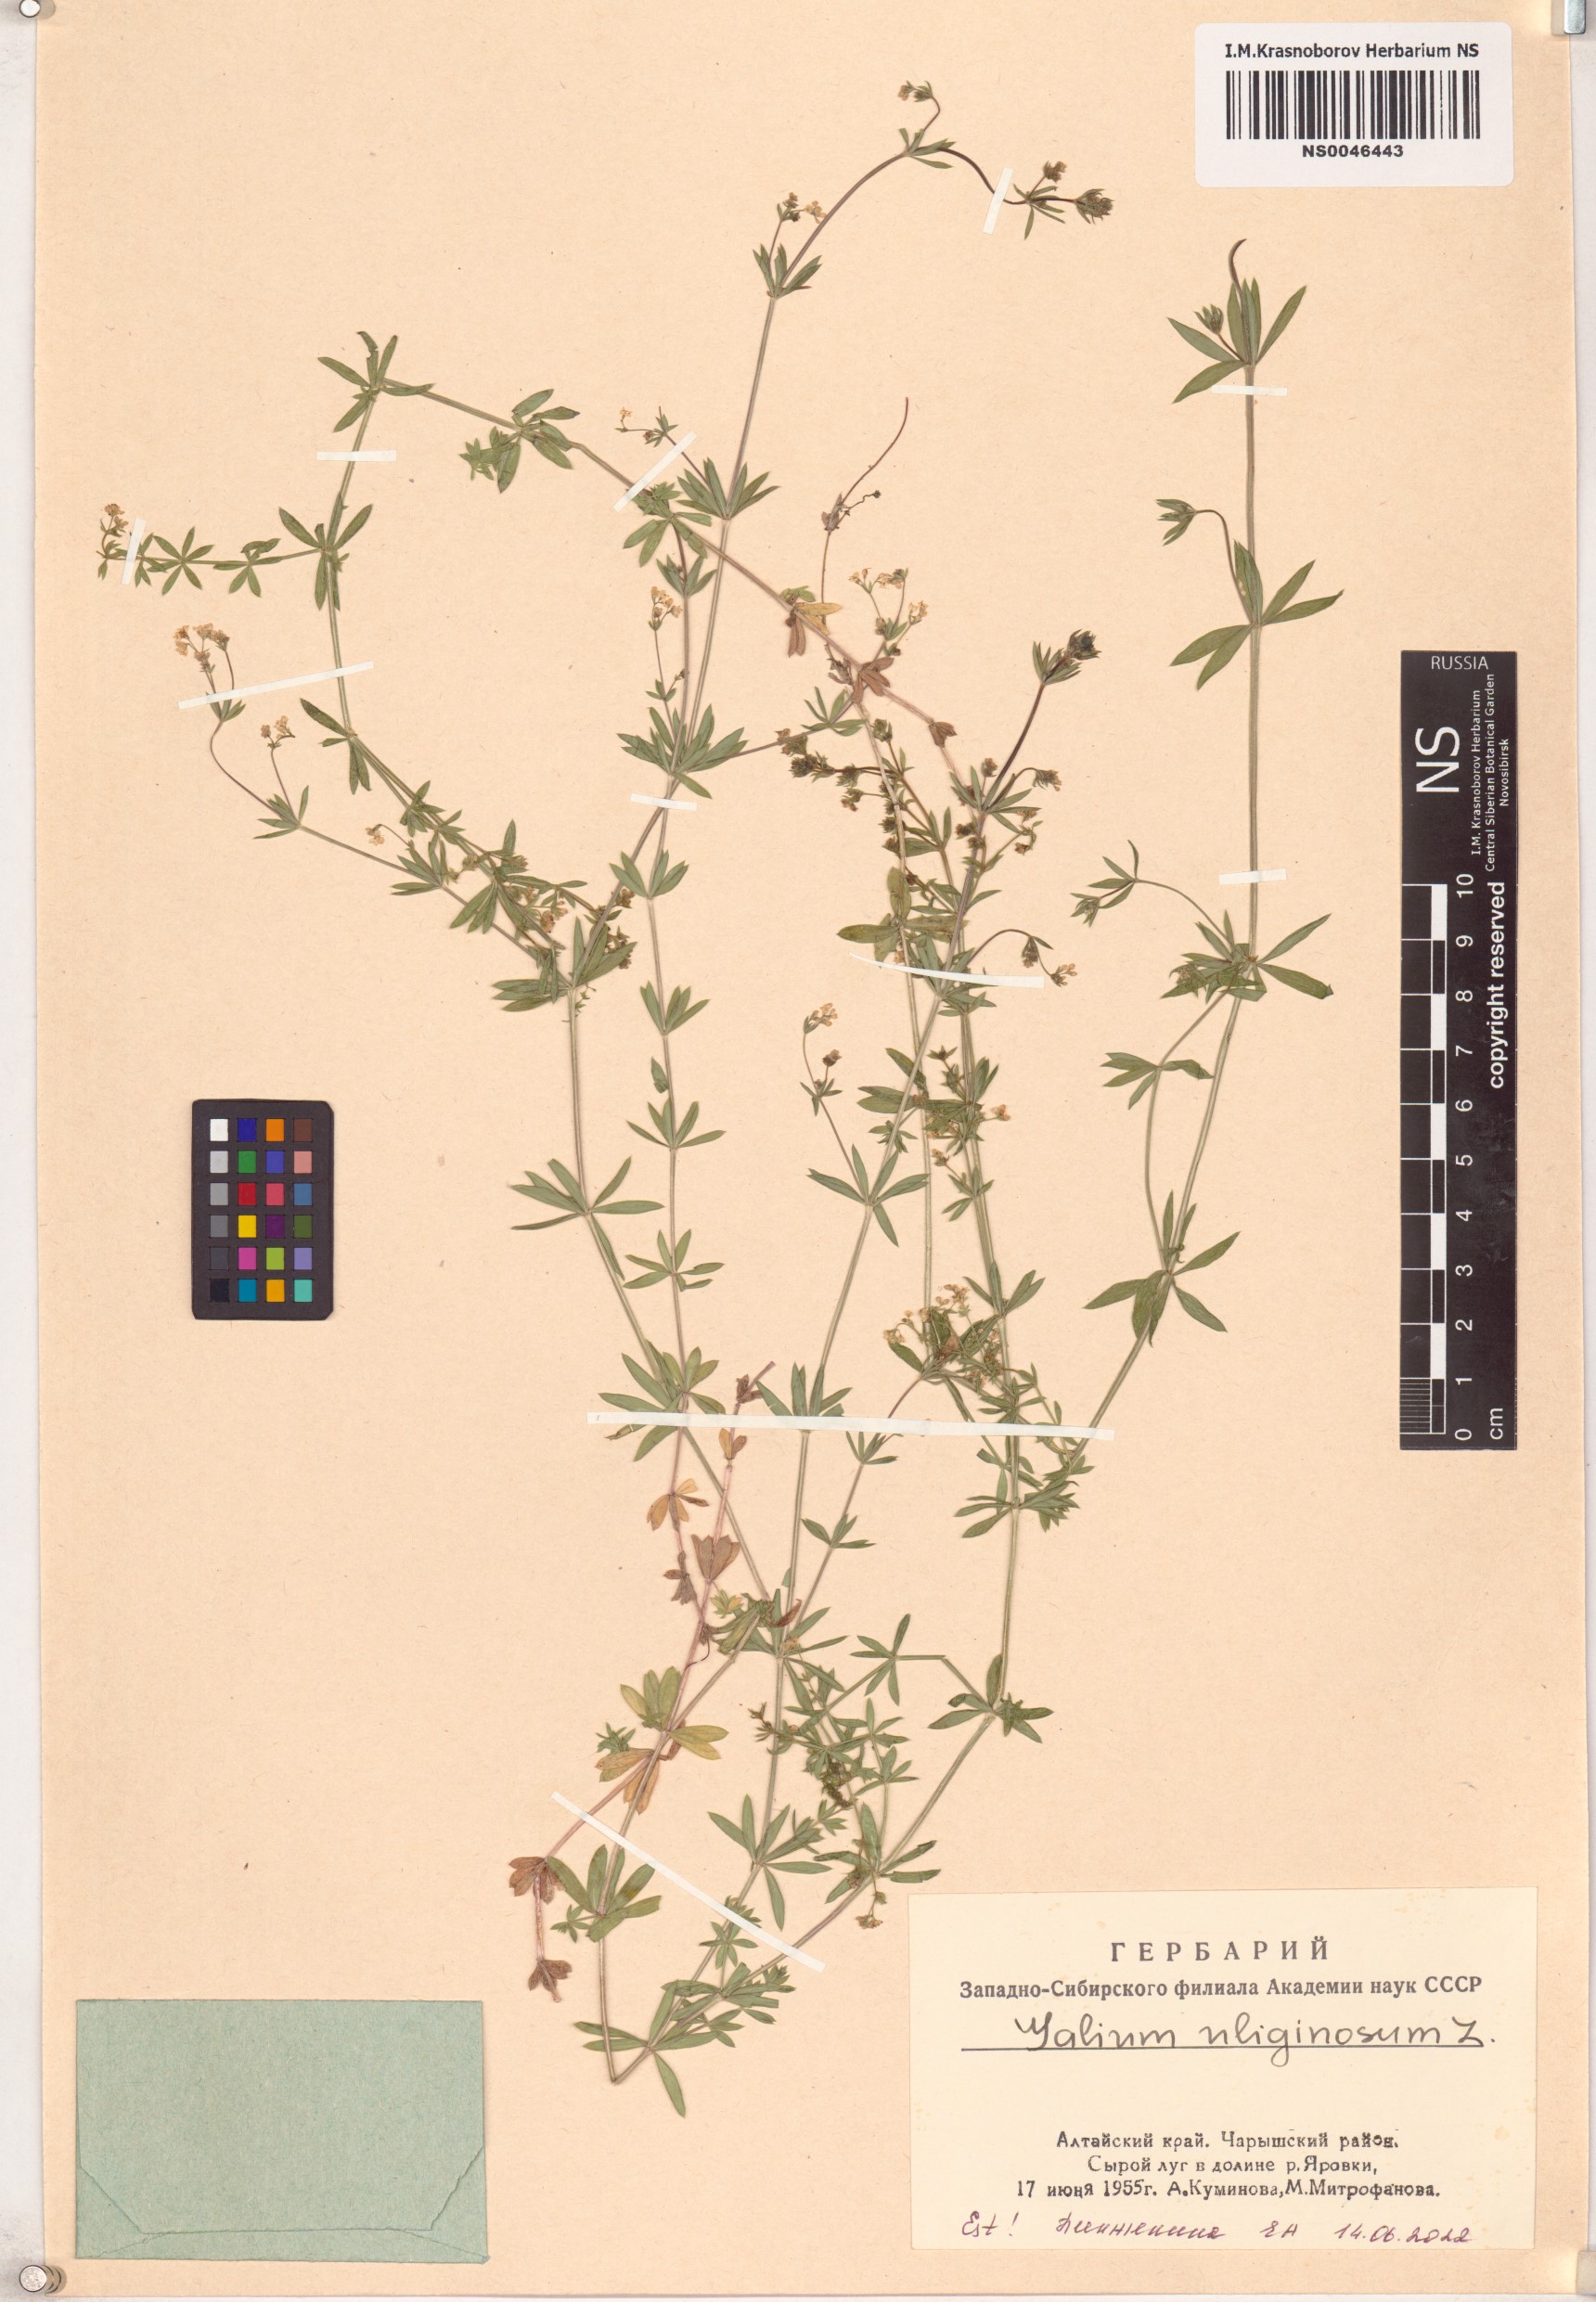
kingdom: Plantae
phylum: Tracheophyta
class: Magnoliopsida
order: Gentianales
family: Rubiaceae
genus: Galium
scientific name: Galium uliginosum
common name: Fen bedstraw
